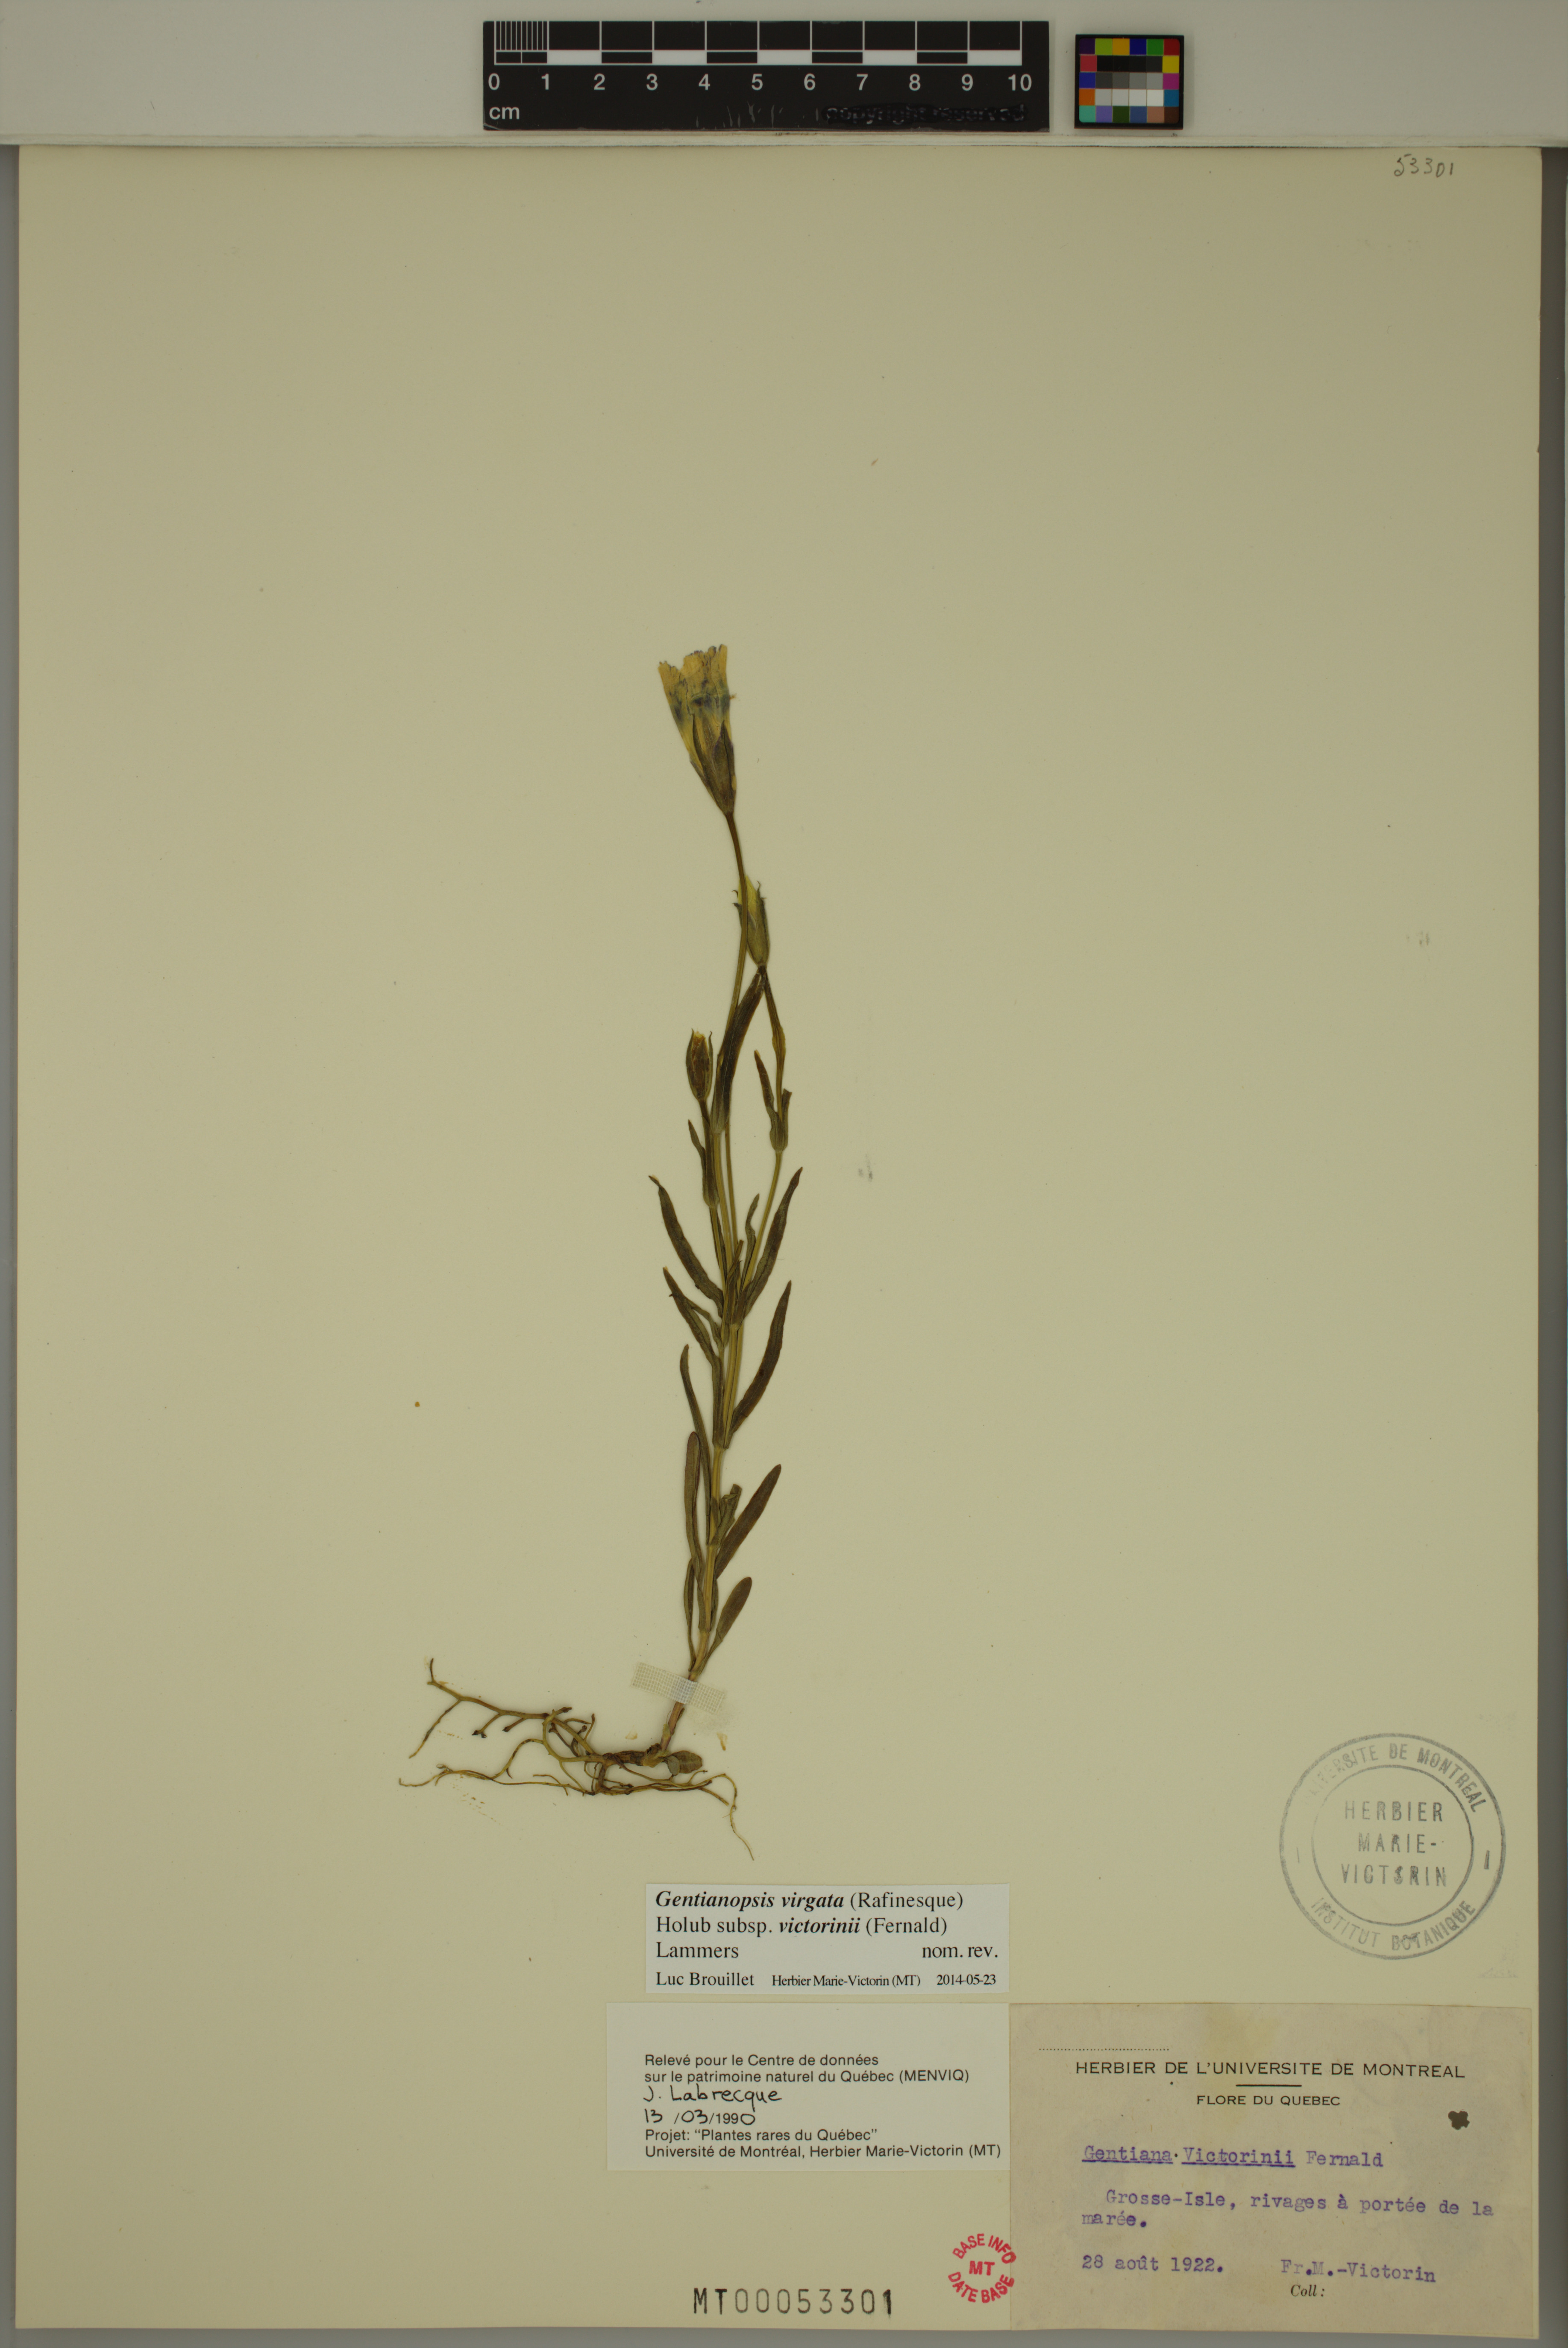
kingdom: Plantae
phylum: Tracheophyta
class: Magnoliopsida
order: Gentianales
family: Gentianaceae
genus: Gentianopsis
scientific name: Gentianopsis victorinii
